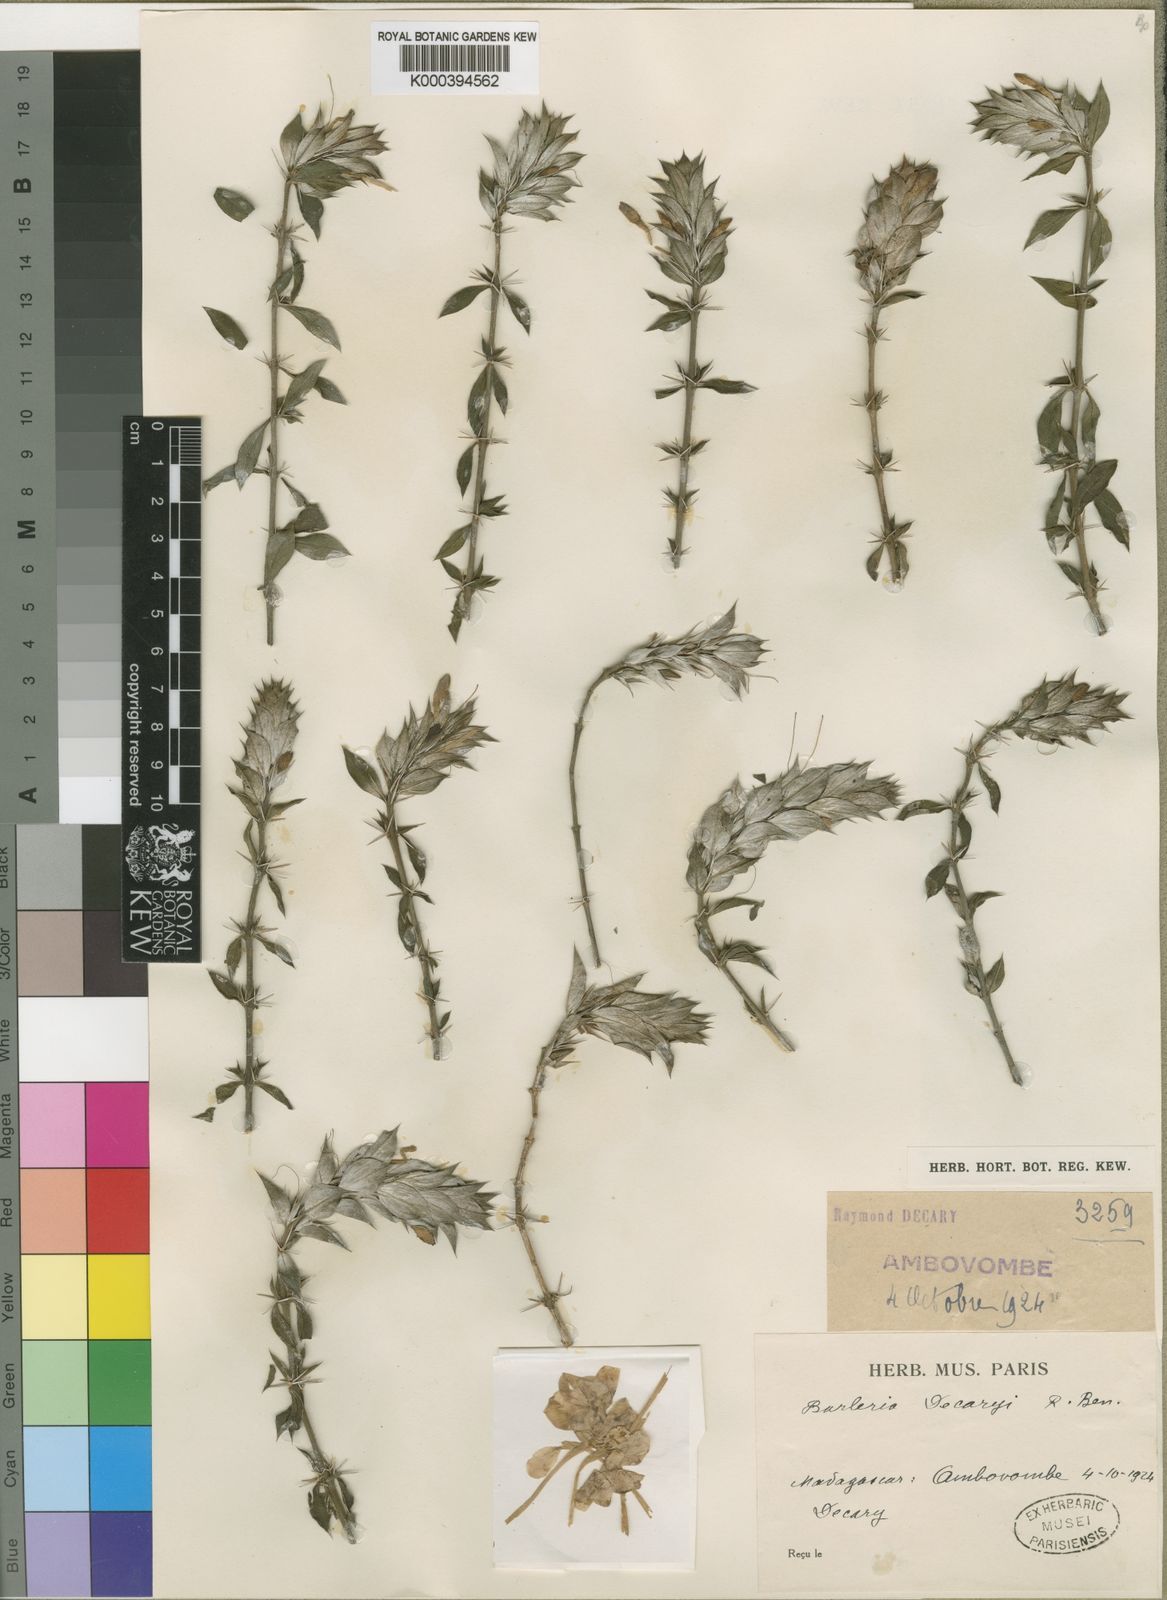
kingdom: Plantae
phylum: Tracheophyta
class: Magnoliopsida
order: Lamiales
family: Acanthaceae
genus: Barleria
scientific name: Barleria decaryi
